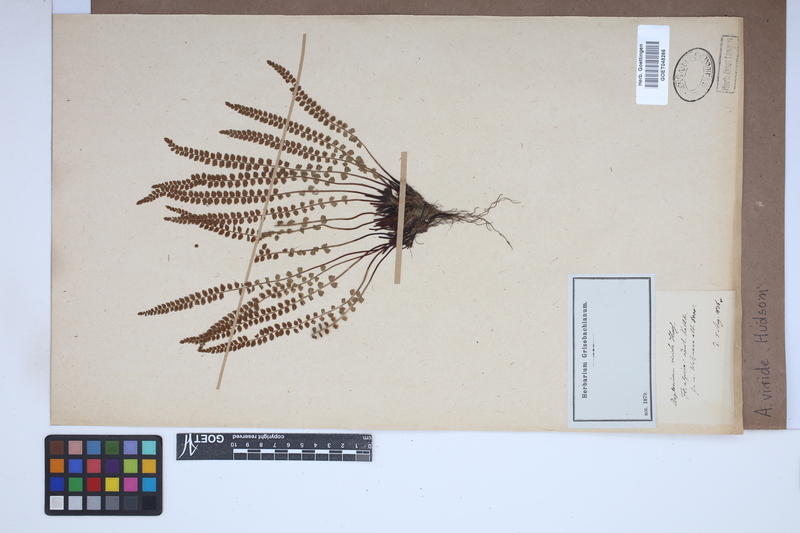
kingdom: Plantae
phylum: Tracheophyta
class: Polypodiopsida
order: Polypodiales
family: Aspleniaceae
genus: Asplenium
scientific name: Asplenium viride
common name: Green spleenwort
